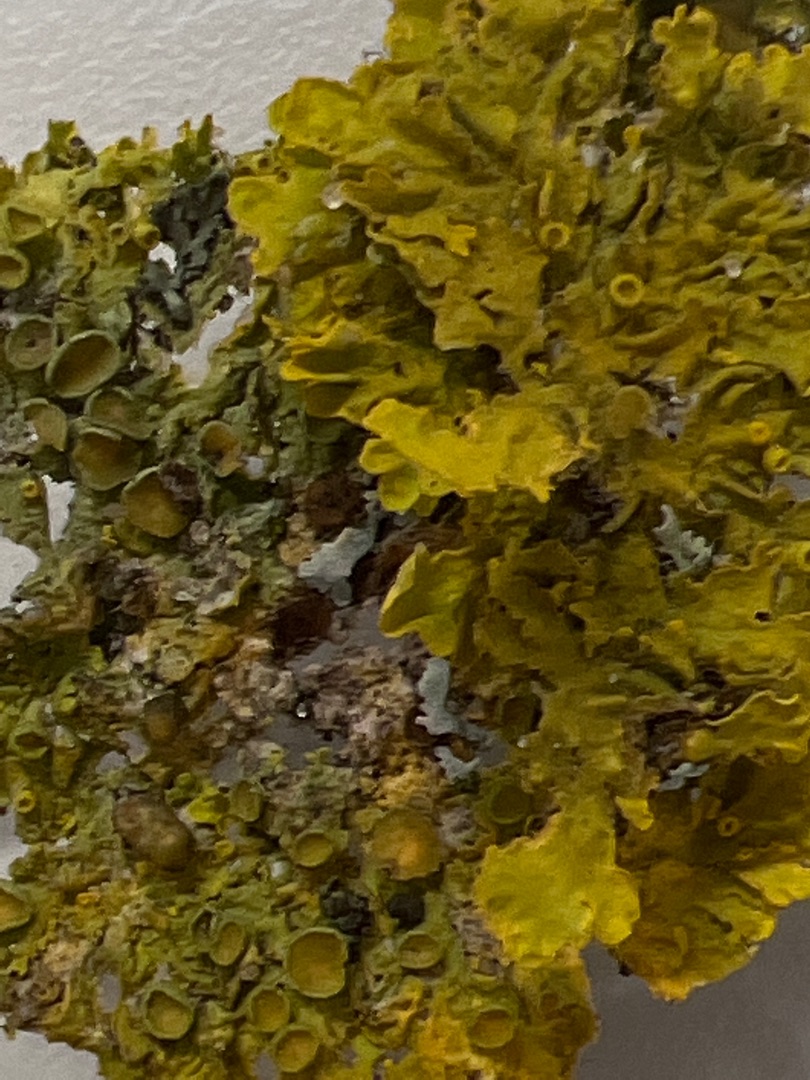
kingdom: Fungi
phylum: Ascomycota
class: Lecanoromycetes
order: Teloschistales
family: Teloschistaceae
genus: Xanthoria
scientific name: Xanthoria parietina
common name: Almindelig væggelav
